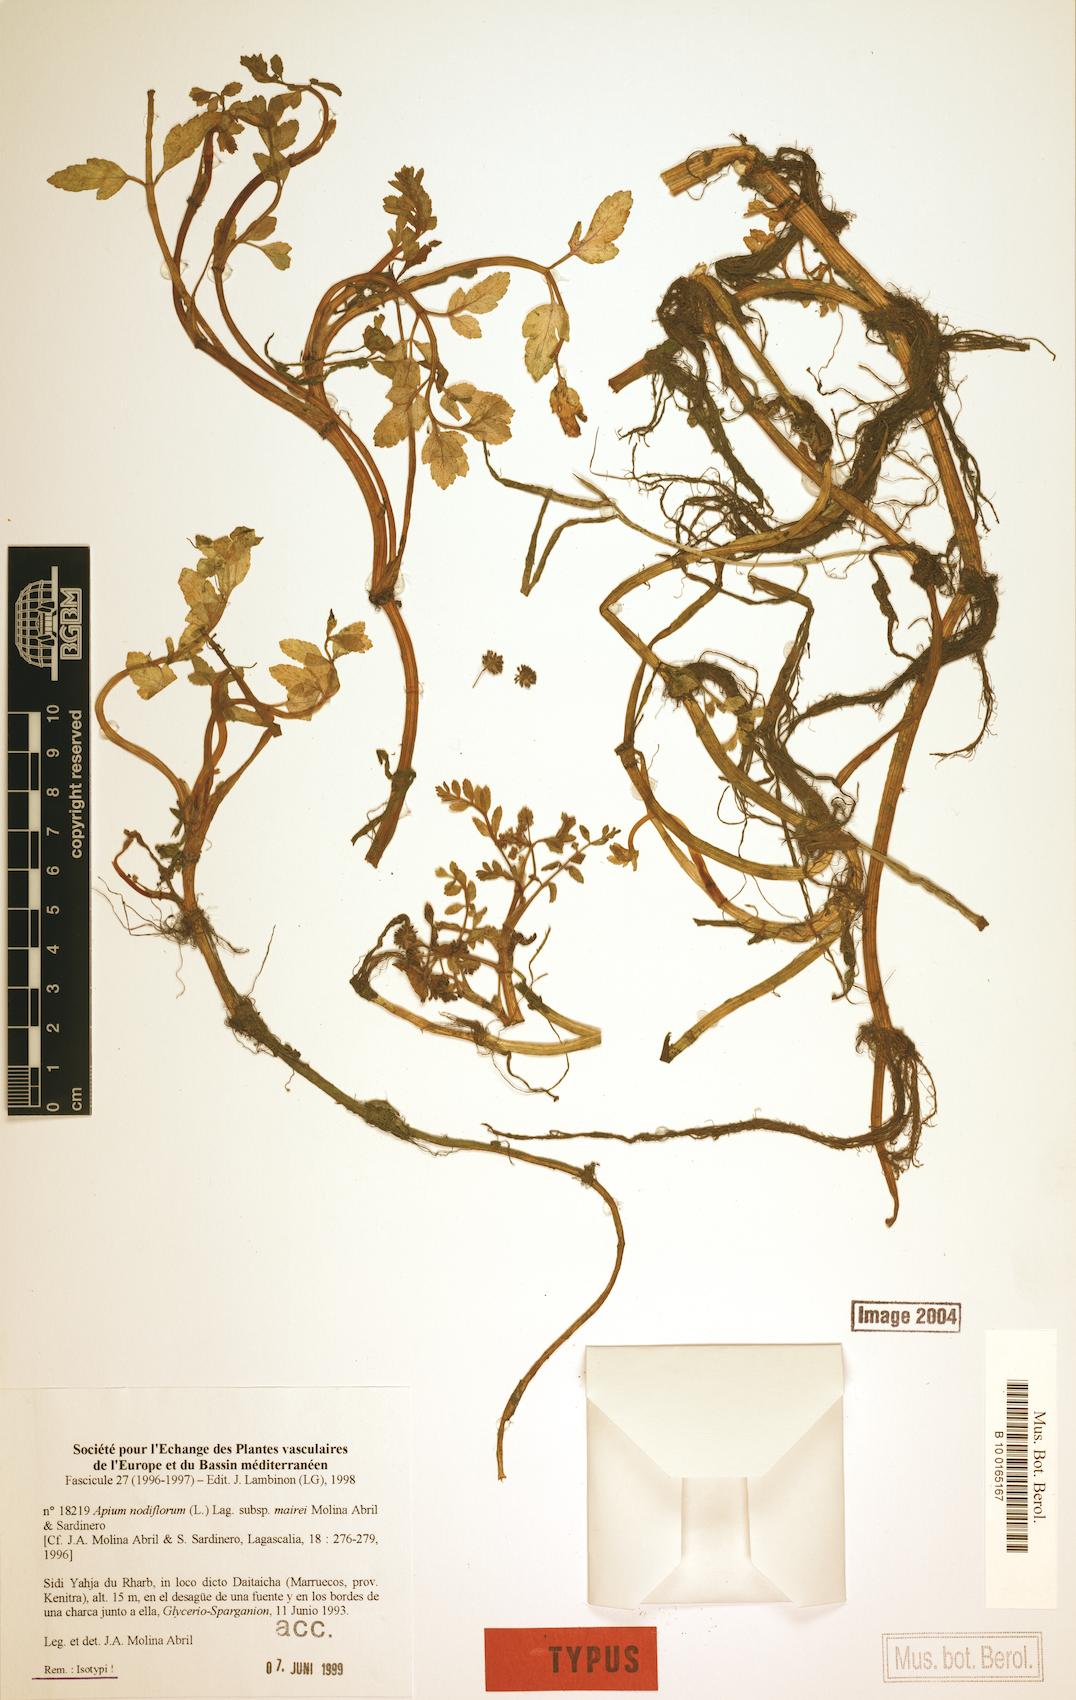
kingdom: Plantae
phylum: Tracheophyta
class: Magnoliopsida
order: Apiales
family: Apiaceae
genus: Helosciadium
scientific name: Helosciadium nodiflorum
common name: Fool's-watercress
